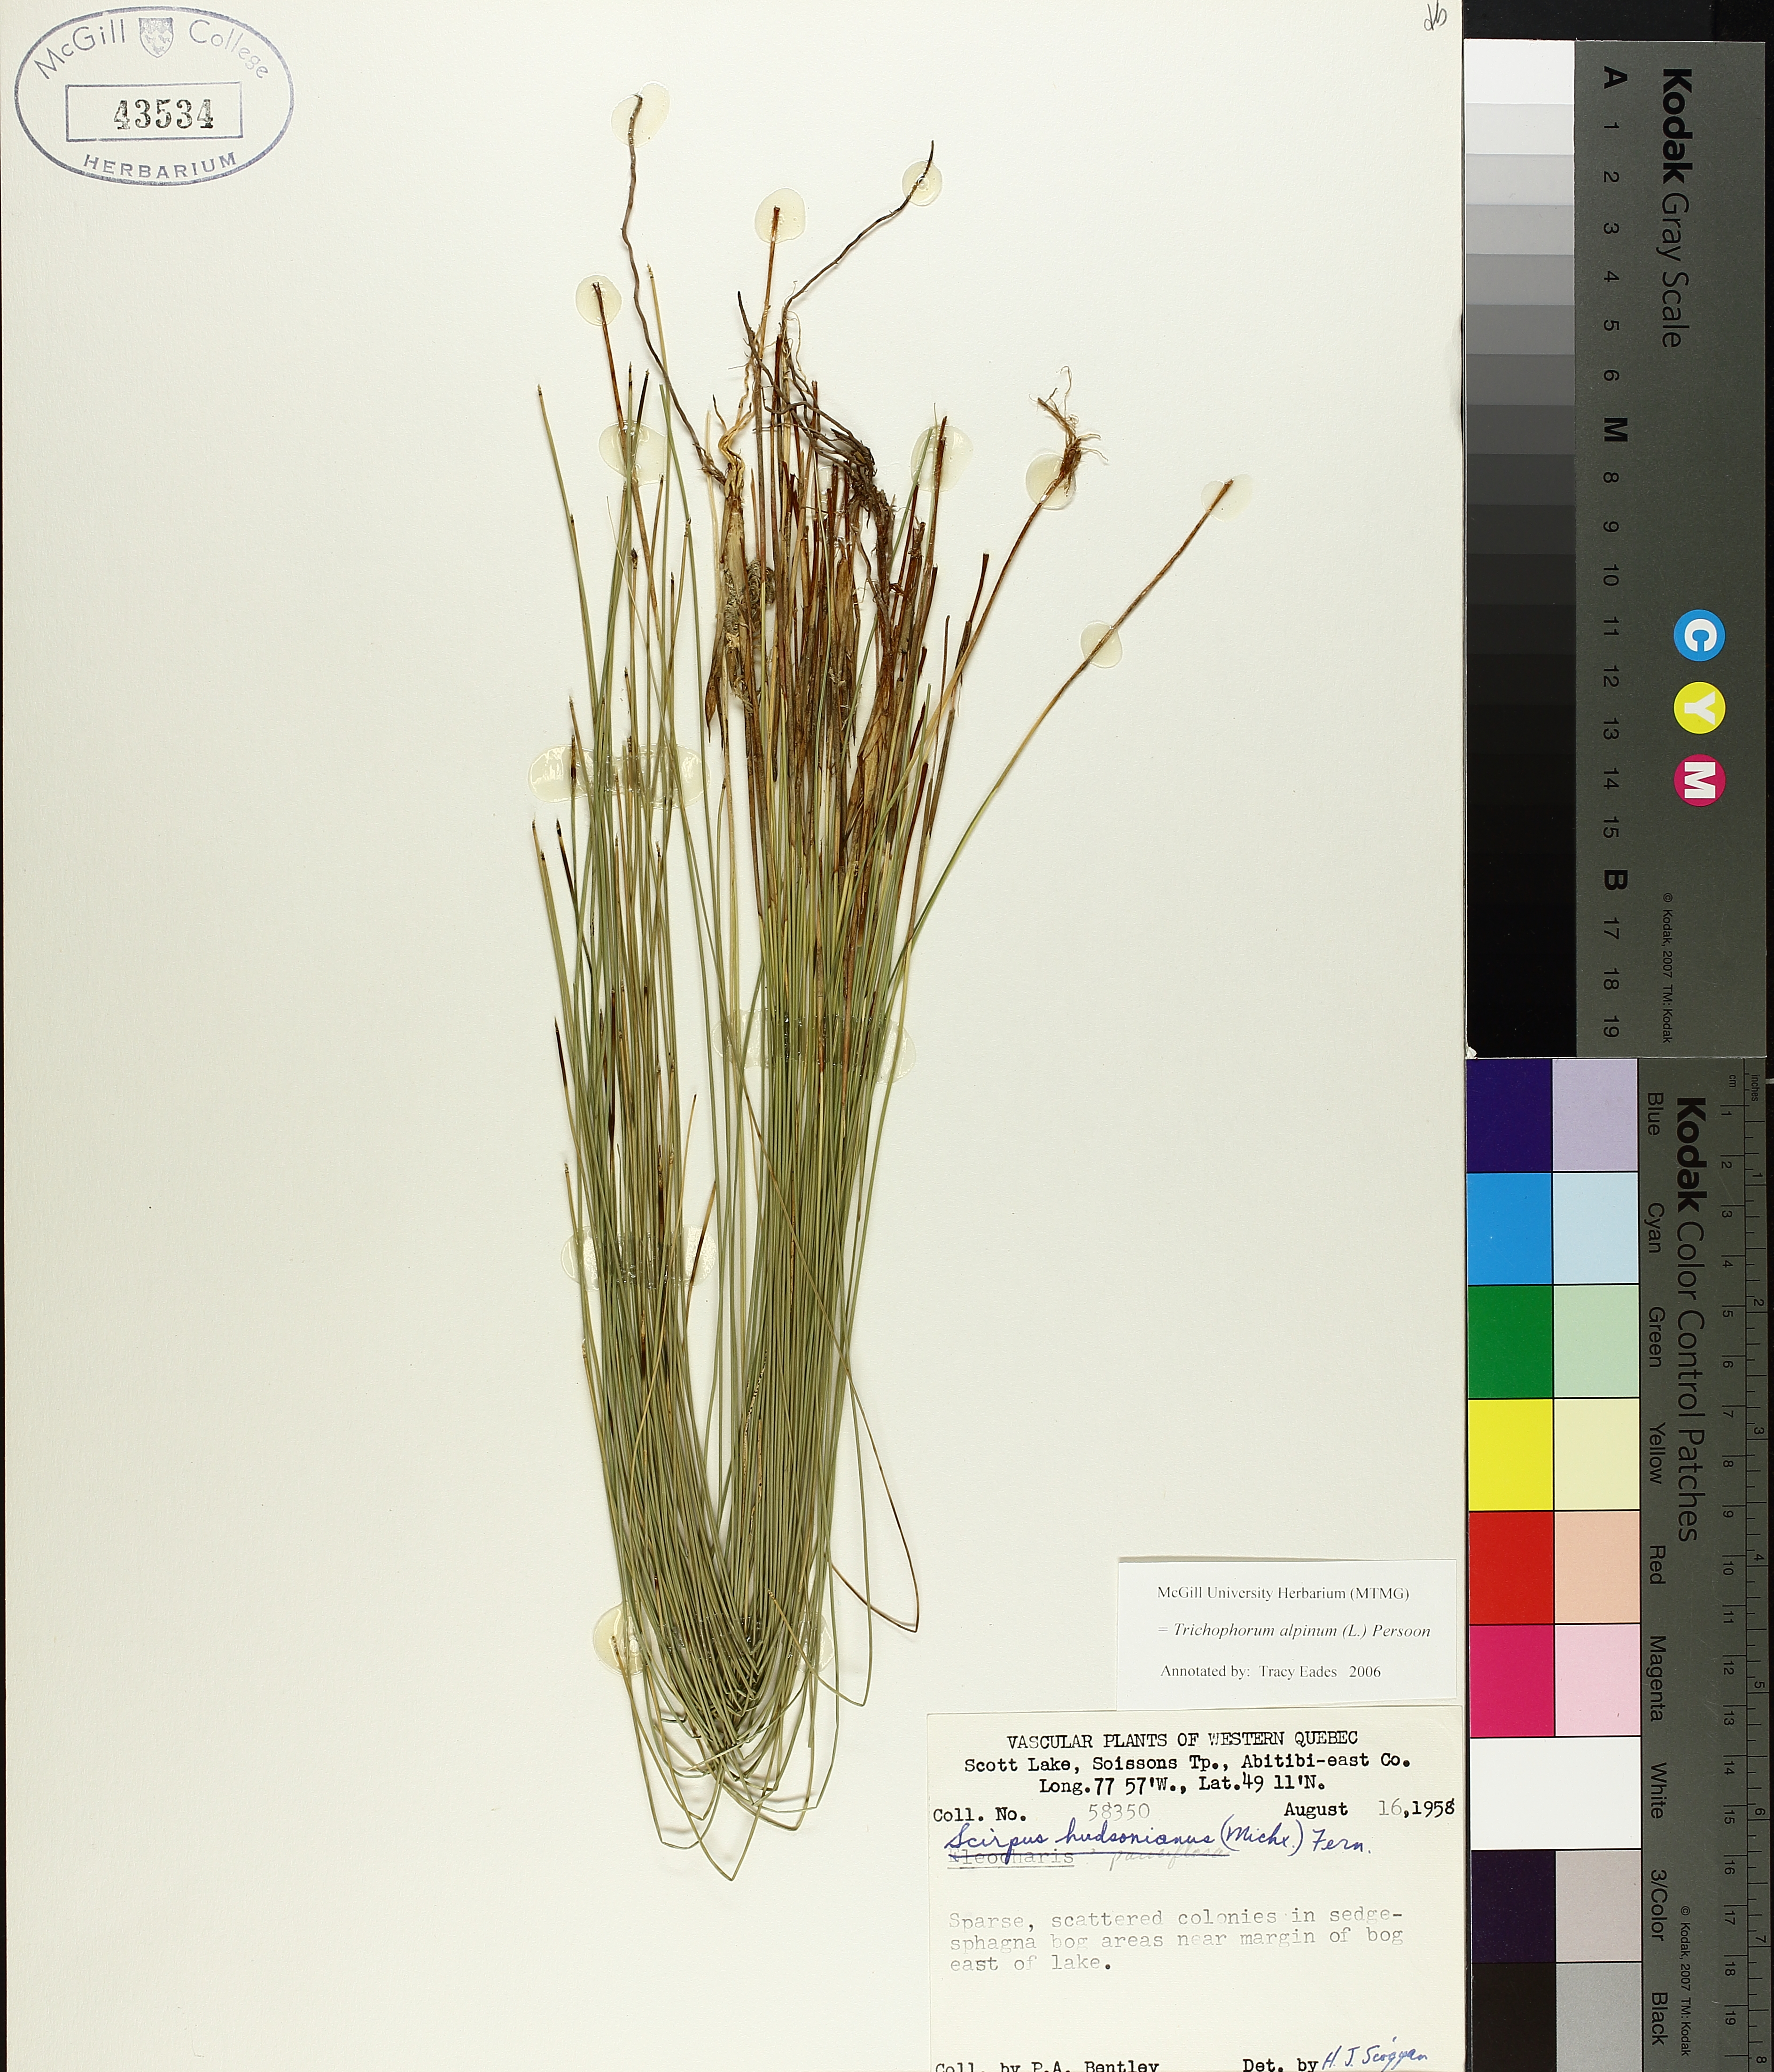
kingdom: Plantae
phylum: Tracheophyta
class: Liliopsida
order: Poales
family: Cyperaceae
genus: Trichophorum
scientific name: Trichophorum alpinum
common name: Alpine bulrush
